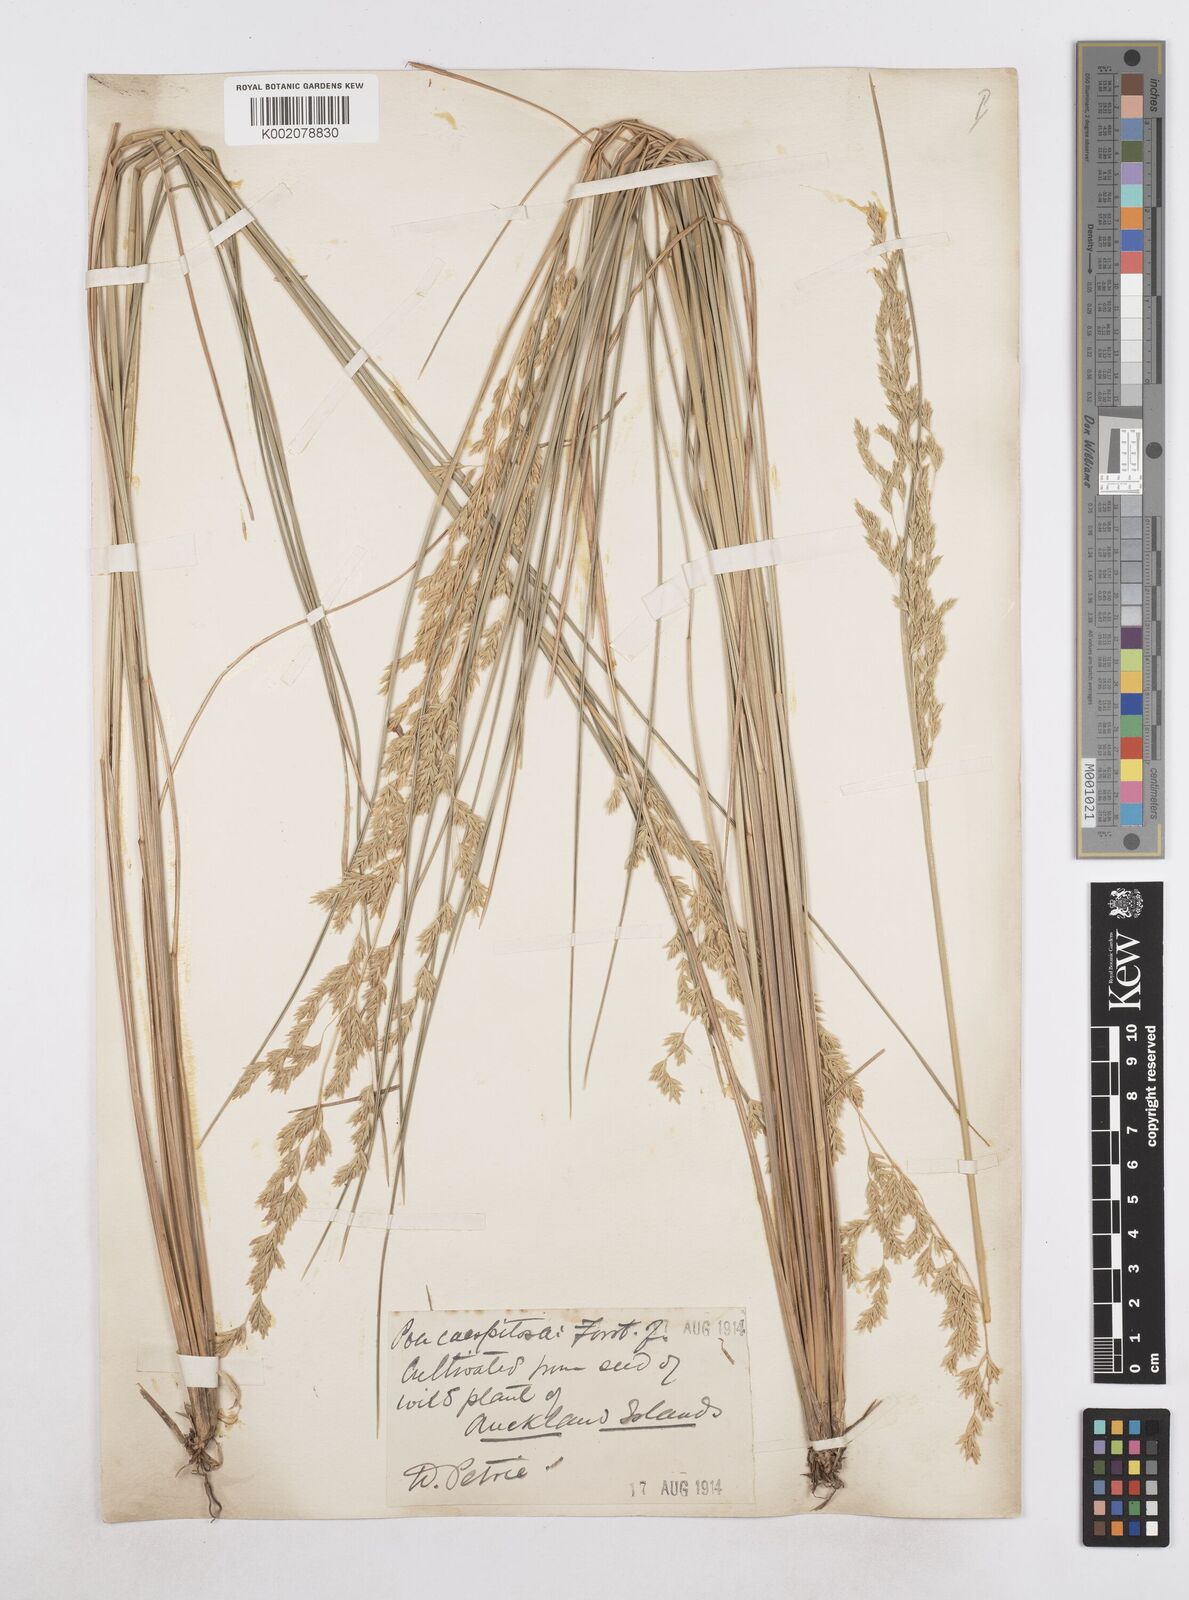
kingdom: Plantae
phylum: Tracheophyta
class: Liliopsida
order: Poales
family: Poaceae
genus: Poa
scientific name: Poa cita
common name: Silver tussock
